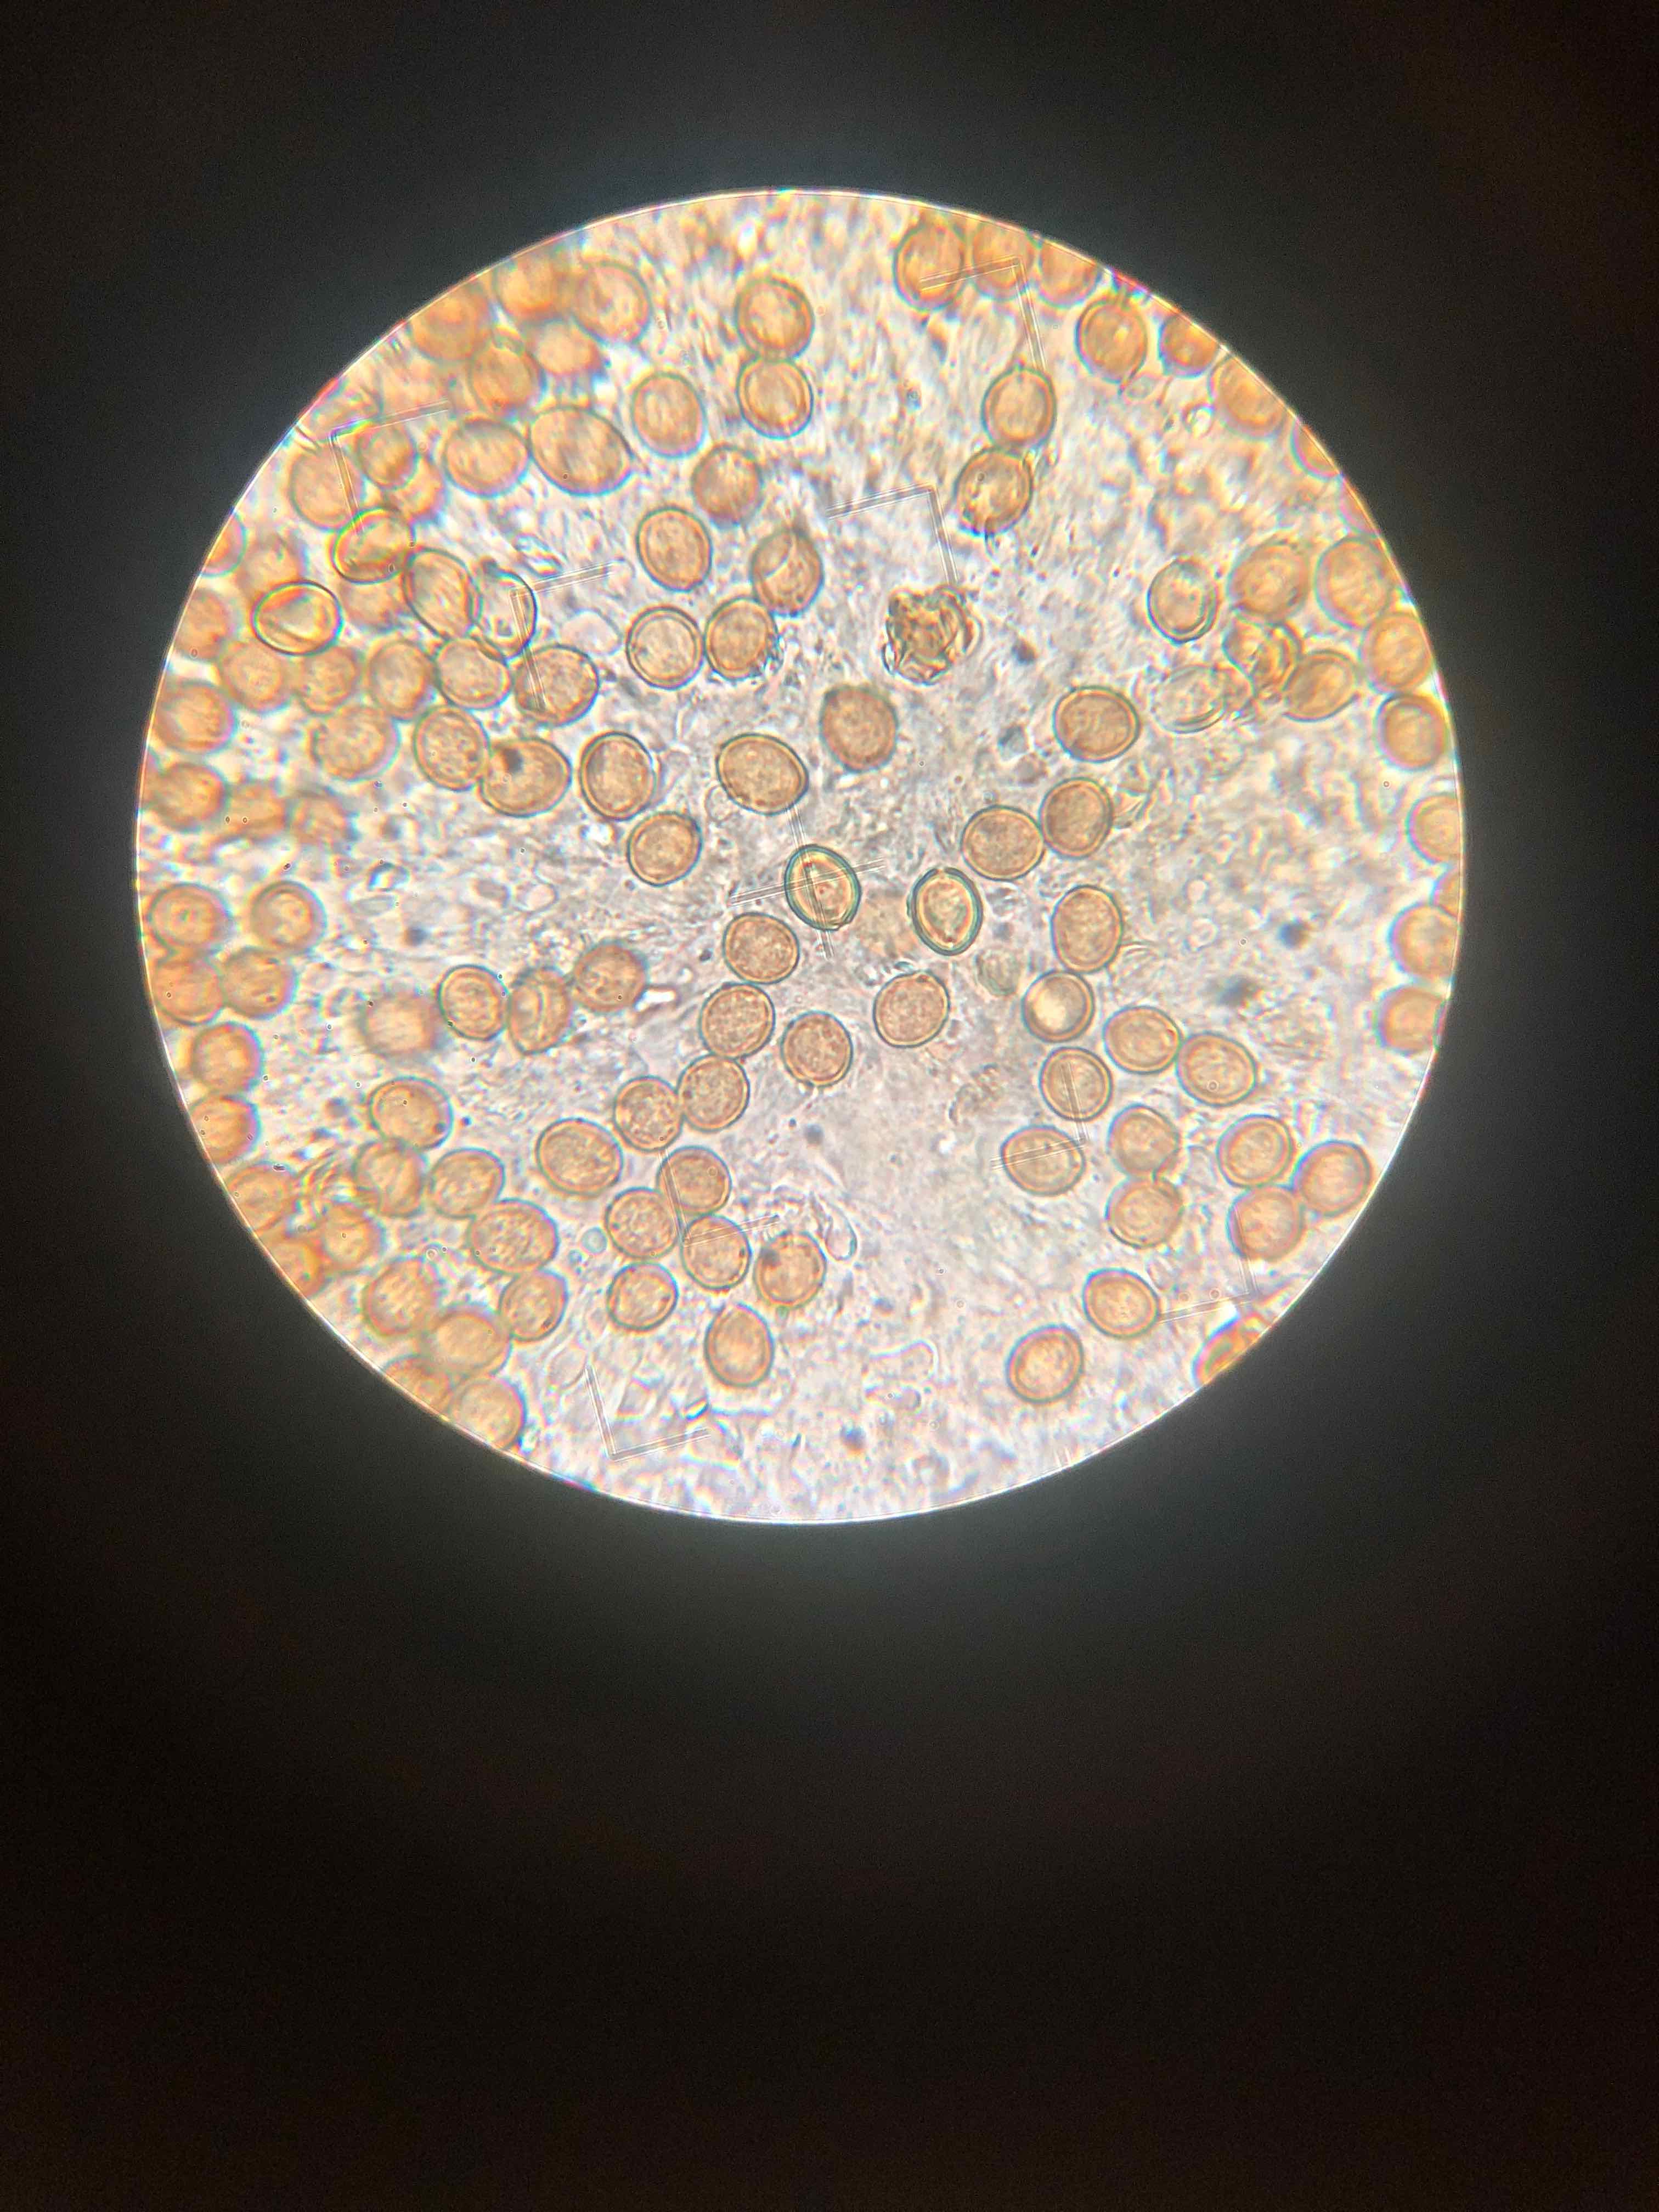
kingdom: Fungi
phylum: Basidiomycota
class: Agaricomycetes
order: Agaricales
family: Chromocyphellaceae
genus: Chromocyphella
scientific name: Chromocyphella muscicola
